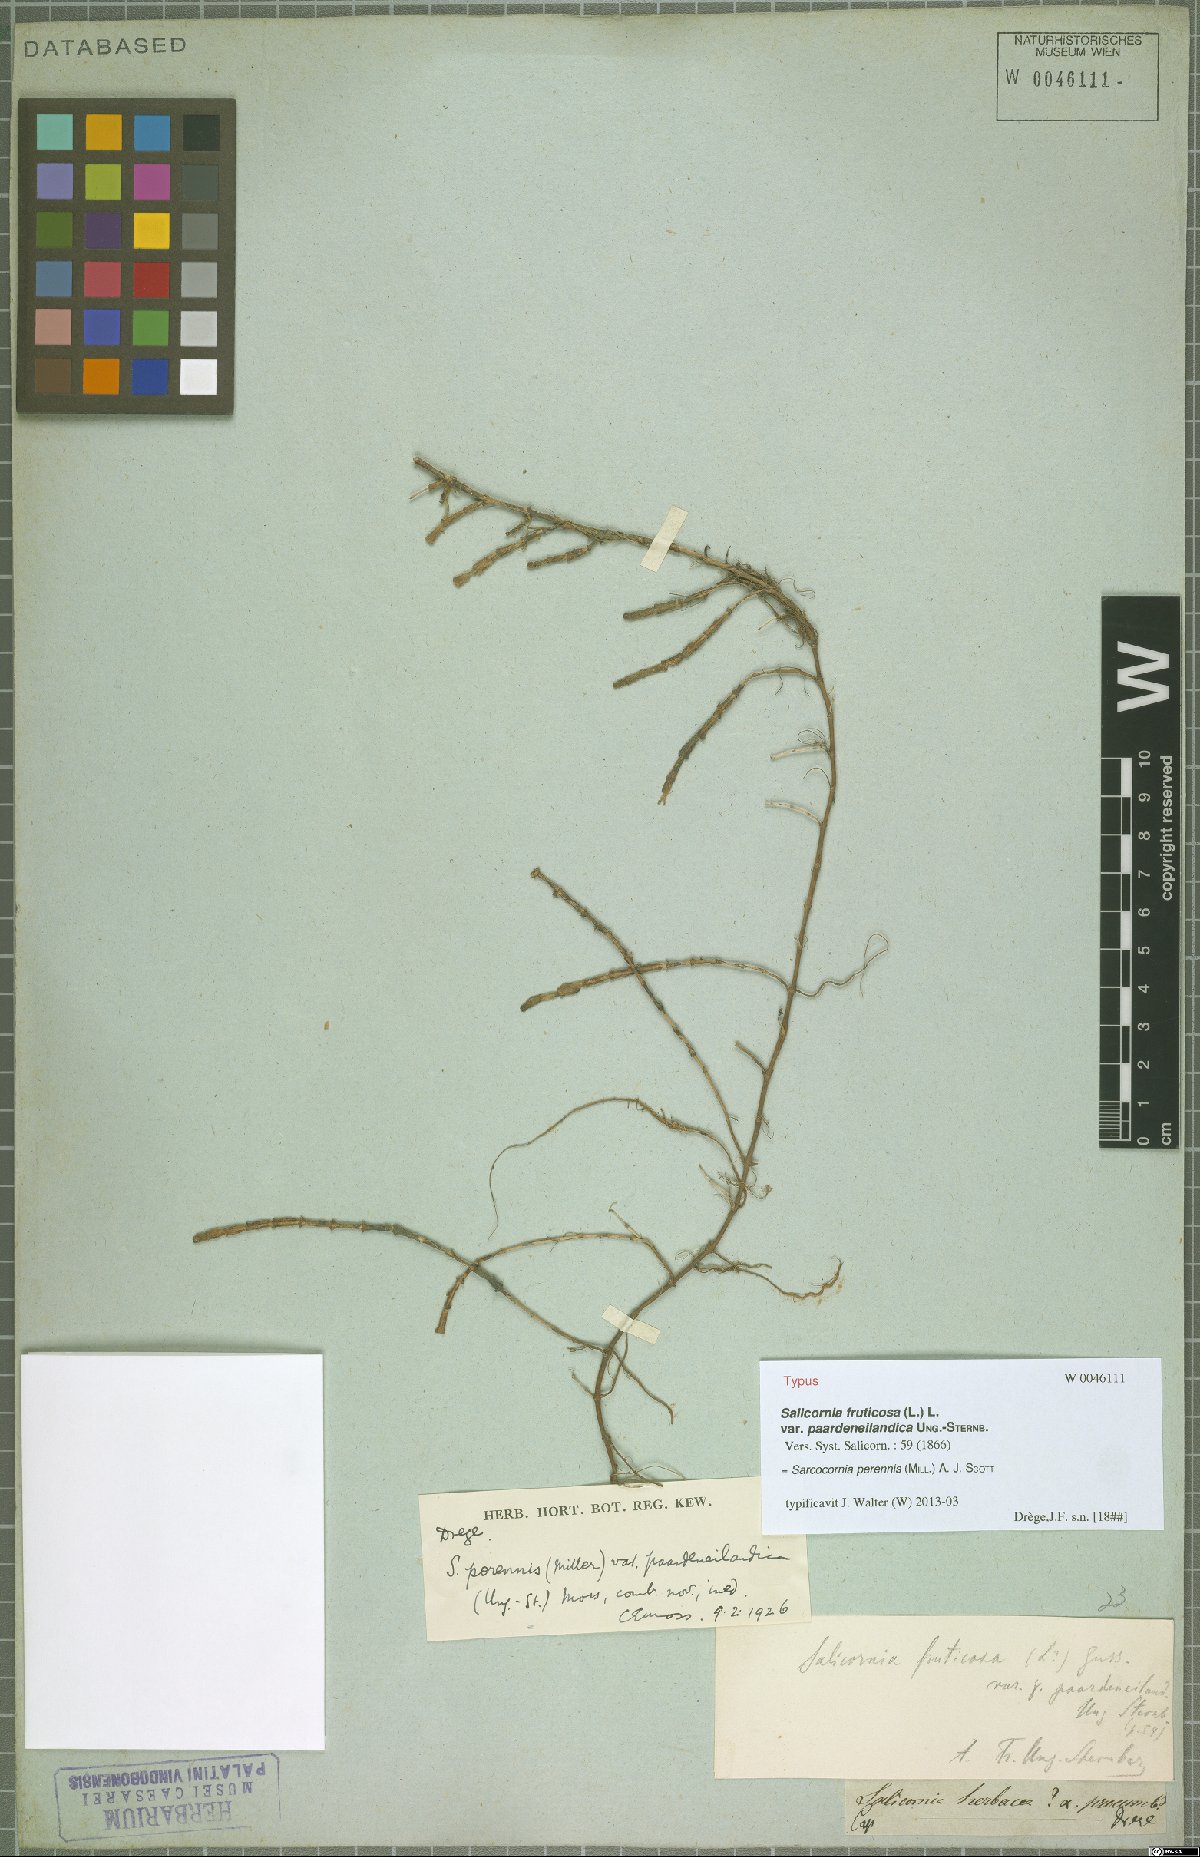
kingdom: Plantae
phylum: Tracheophyta
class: Magnoliopsida
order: Caryophyllales
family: Amaranthaceae
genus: Salicornia
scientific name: Salicornia perennis
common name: Chicken claws
